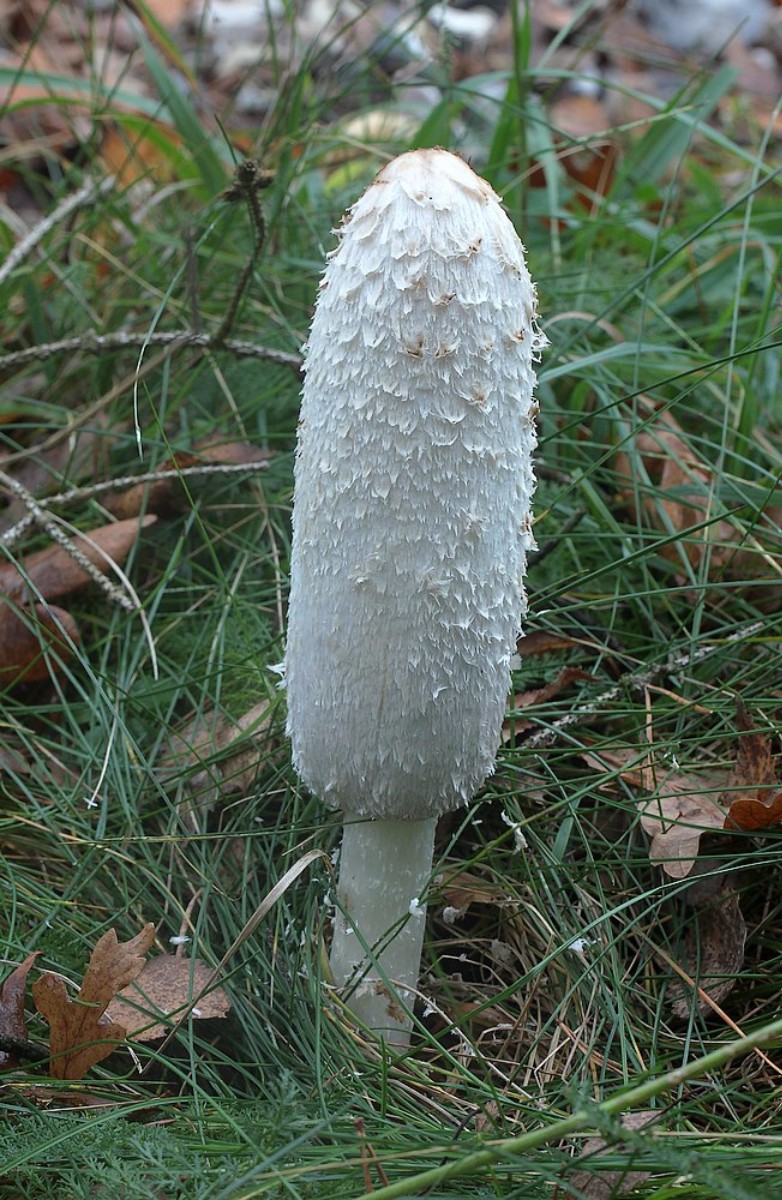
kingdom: Fungi
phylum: Basidiomycota
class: Agaricomycetes
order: Agaricales
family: Agaricaceae
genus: Coprinus
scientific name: Coprinus comatus
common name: stor parykhat
